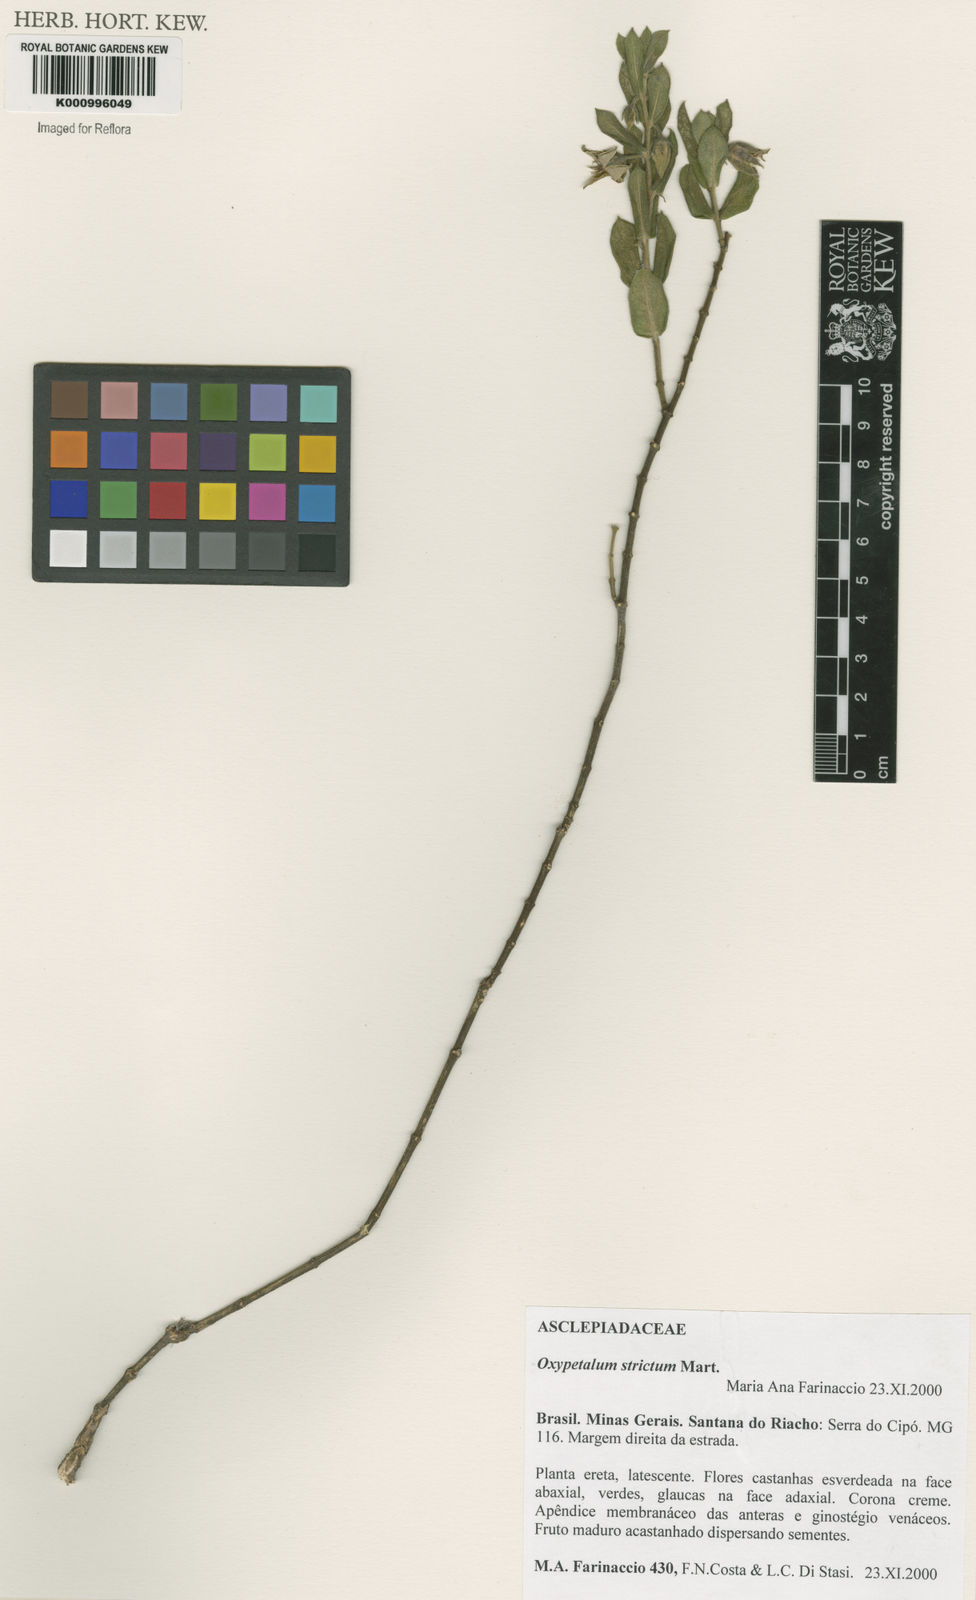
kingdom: Plantae
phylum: Tracheophyta
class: Magnoliopsida
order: Gentianales
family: Apocynaceae
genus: Oxypetalum
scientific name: Oxypetalum strictum
